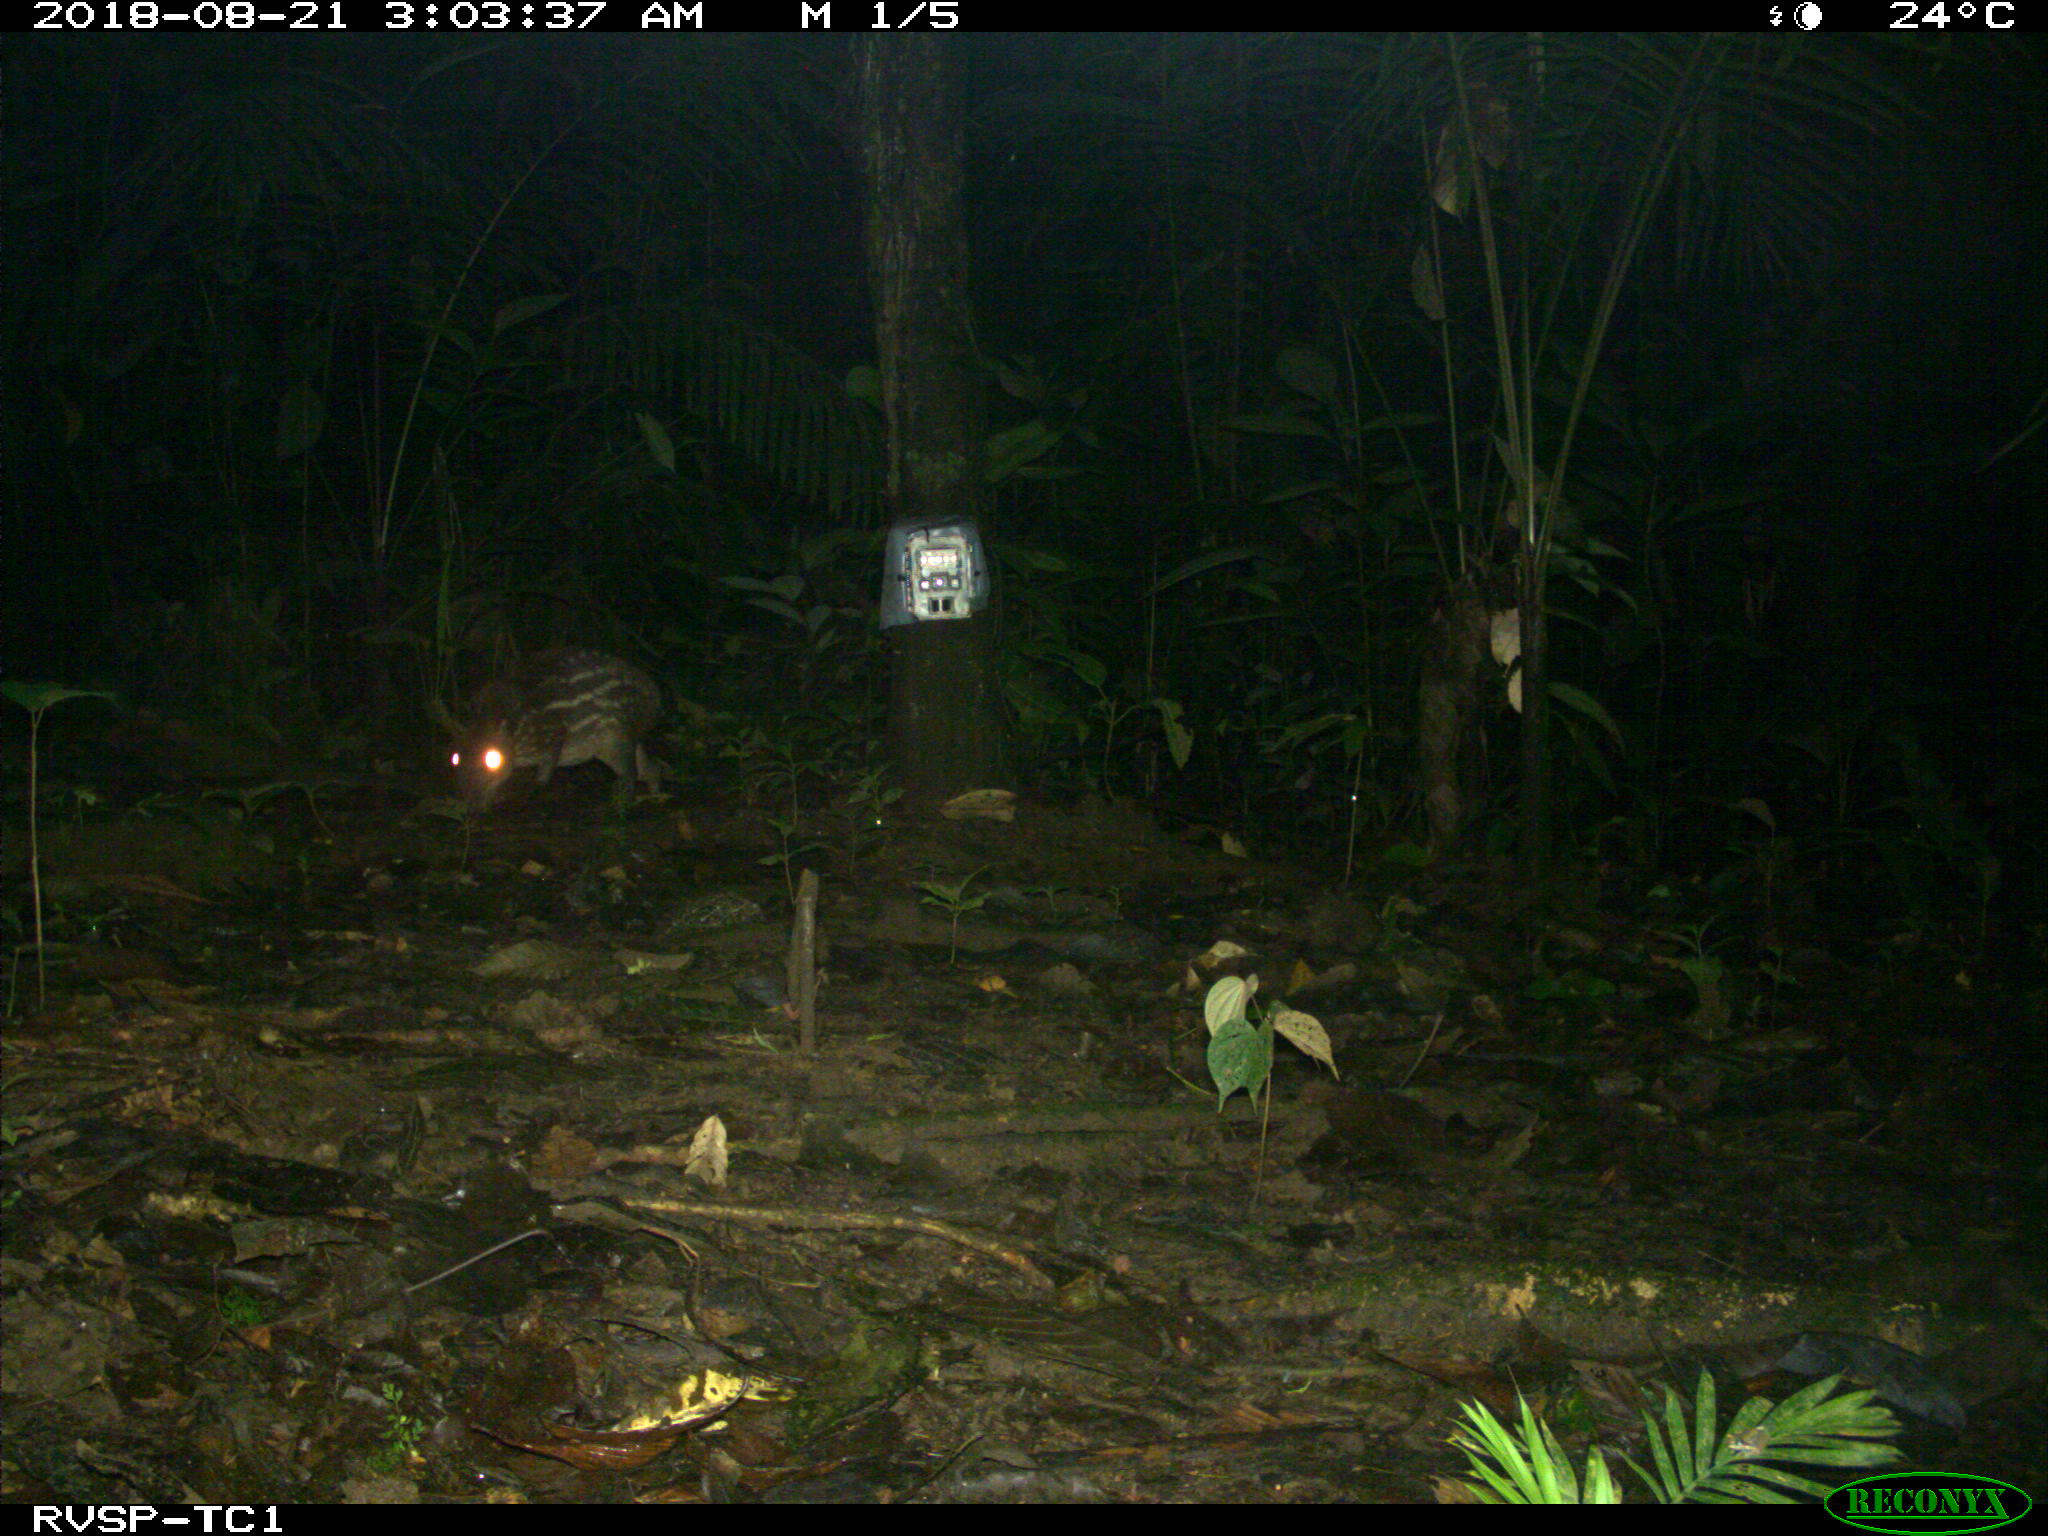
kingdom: Animalia
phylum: Chordata
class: Mammalia
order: Rodentia
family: Cuniculidae
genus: Cuniculus
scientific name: Cuniculus paca
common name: Lowland paca
